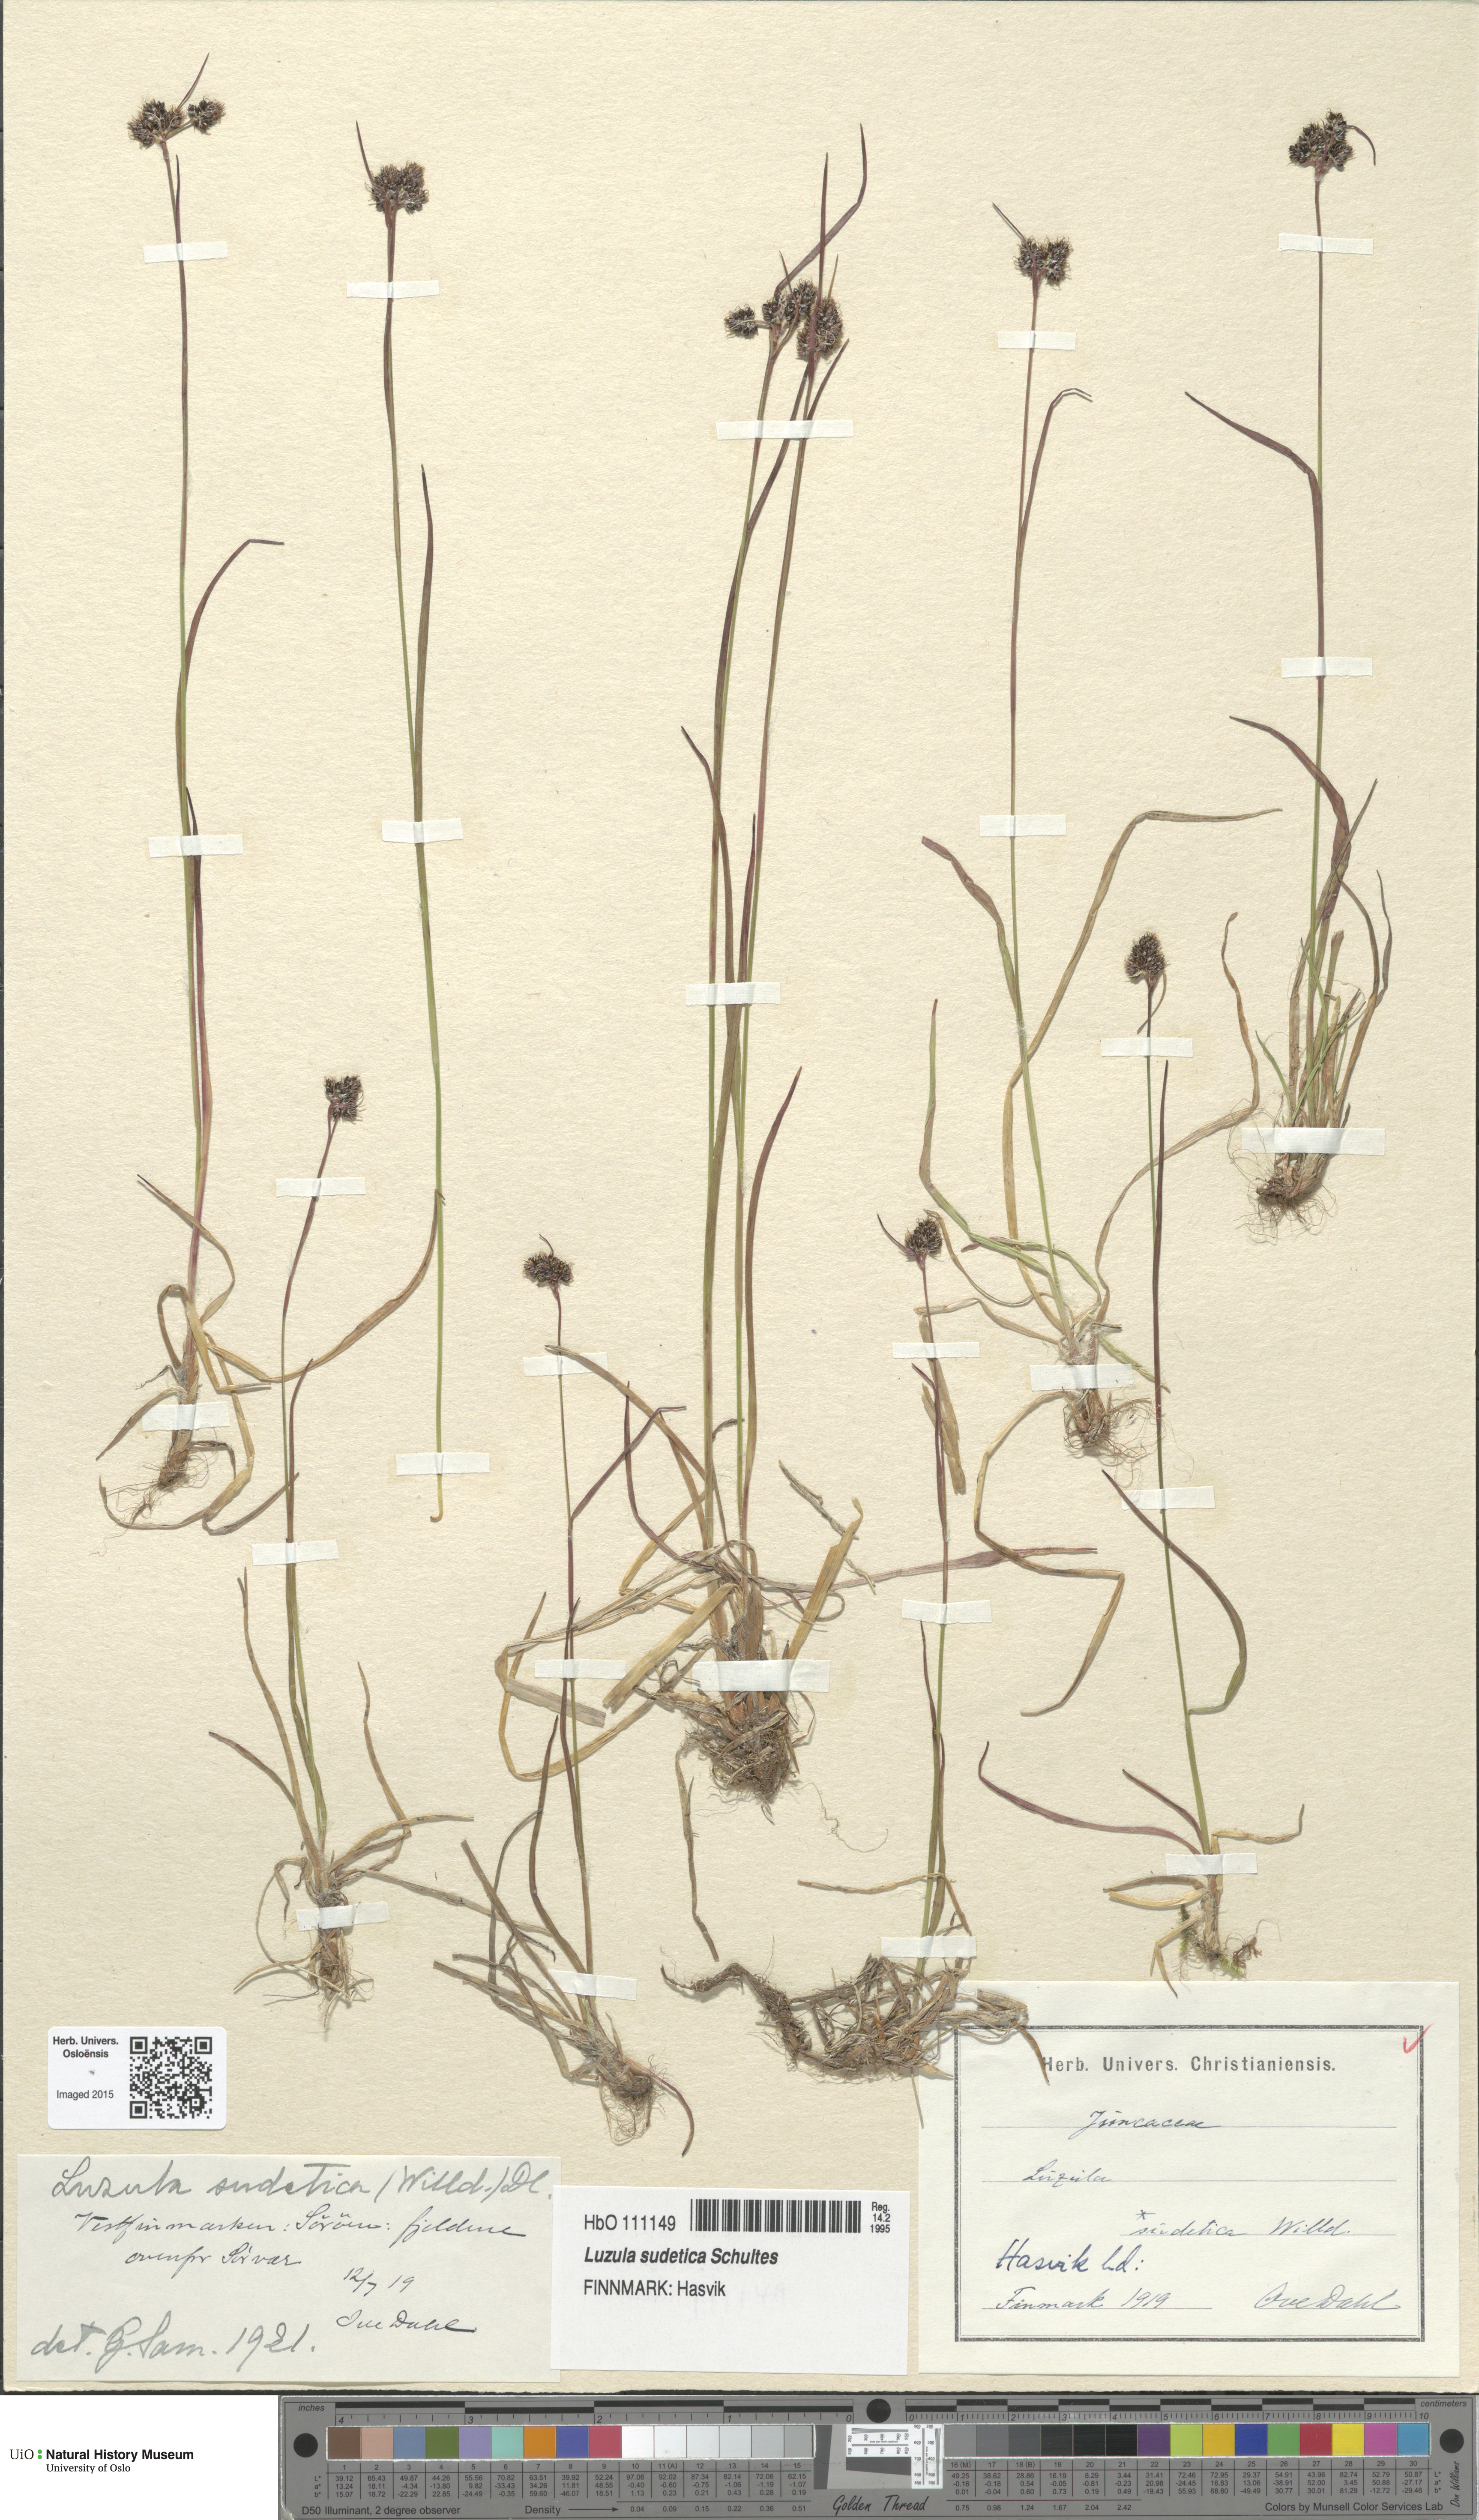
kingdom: Plantae
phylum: Tracheophyta
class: Liliopsida
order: Poales
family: Juncaceae
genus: Luzula
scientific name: Luzula sudetica
